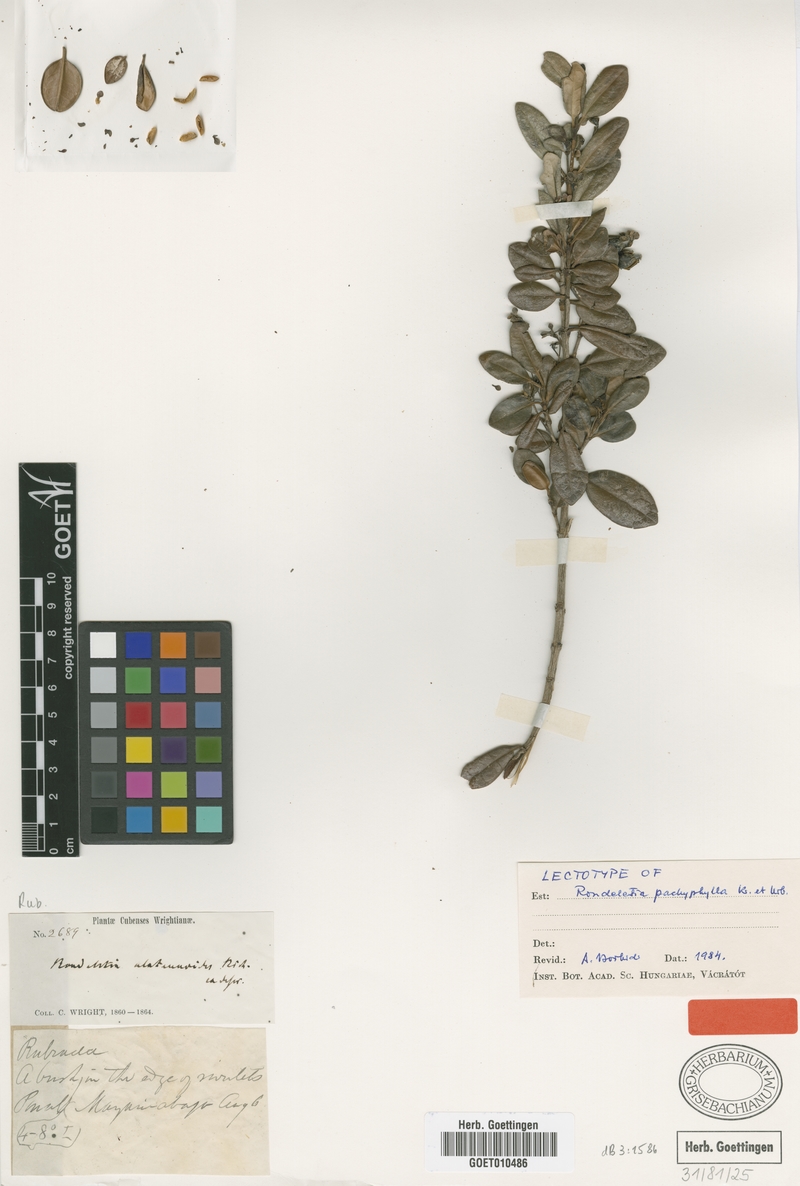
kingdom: Plantae
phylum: Tracheophyta
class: Magnoliopsida
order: Gentianales
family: Rubiaceae
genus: Rondeletia
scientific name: Rondeletia pachyphylla
